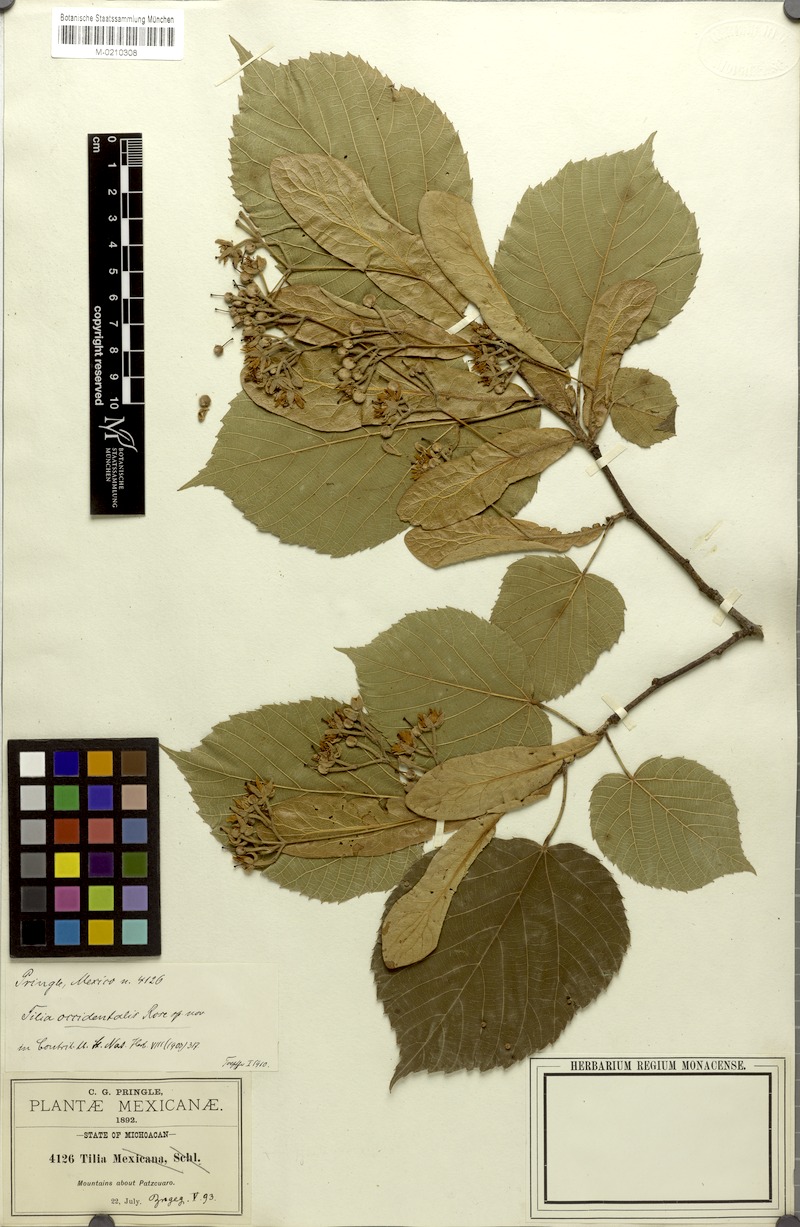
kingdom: Plantae
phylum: Tracheophyta
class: Magnoliopsida
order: Malvales
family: Malvaceae
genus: Tilia
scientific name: Tilia mexicana
